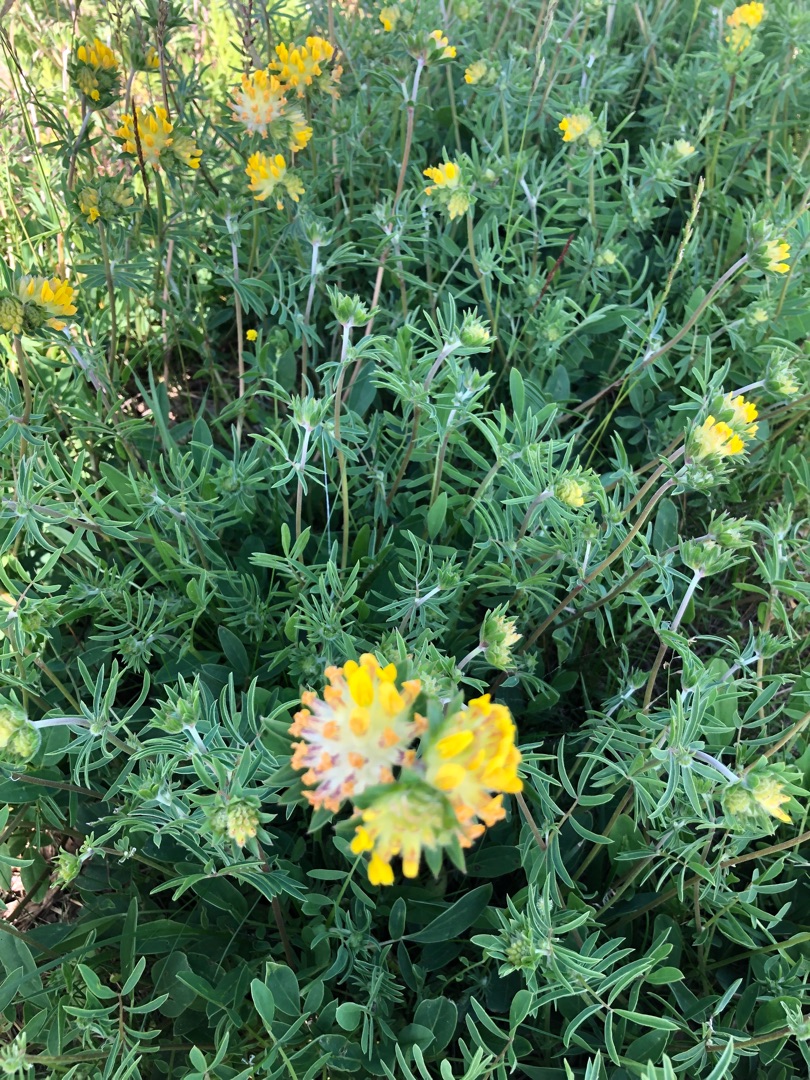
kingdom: Plantae
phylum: Tracheophyta
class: Magnoliopsida
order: Fabales
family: Fabaceae
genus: Anthyllis
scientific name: Anthyllis vulneraria
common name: Rundbælg
